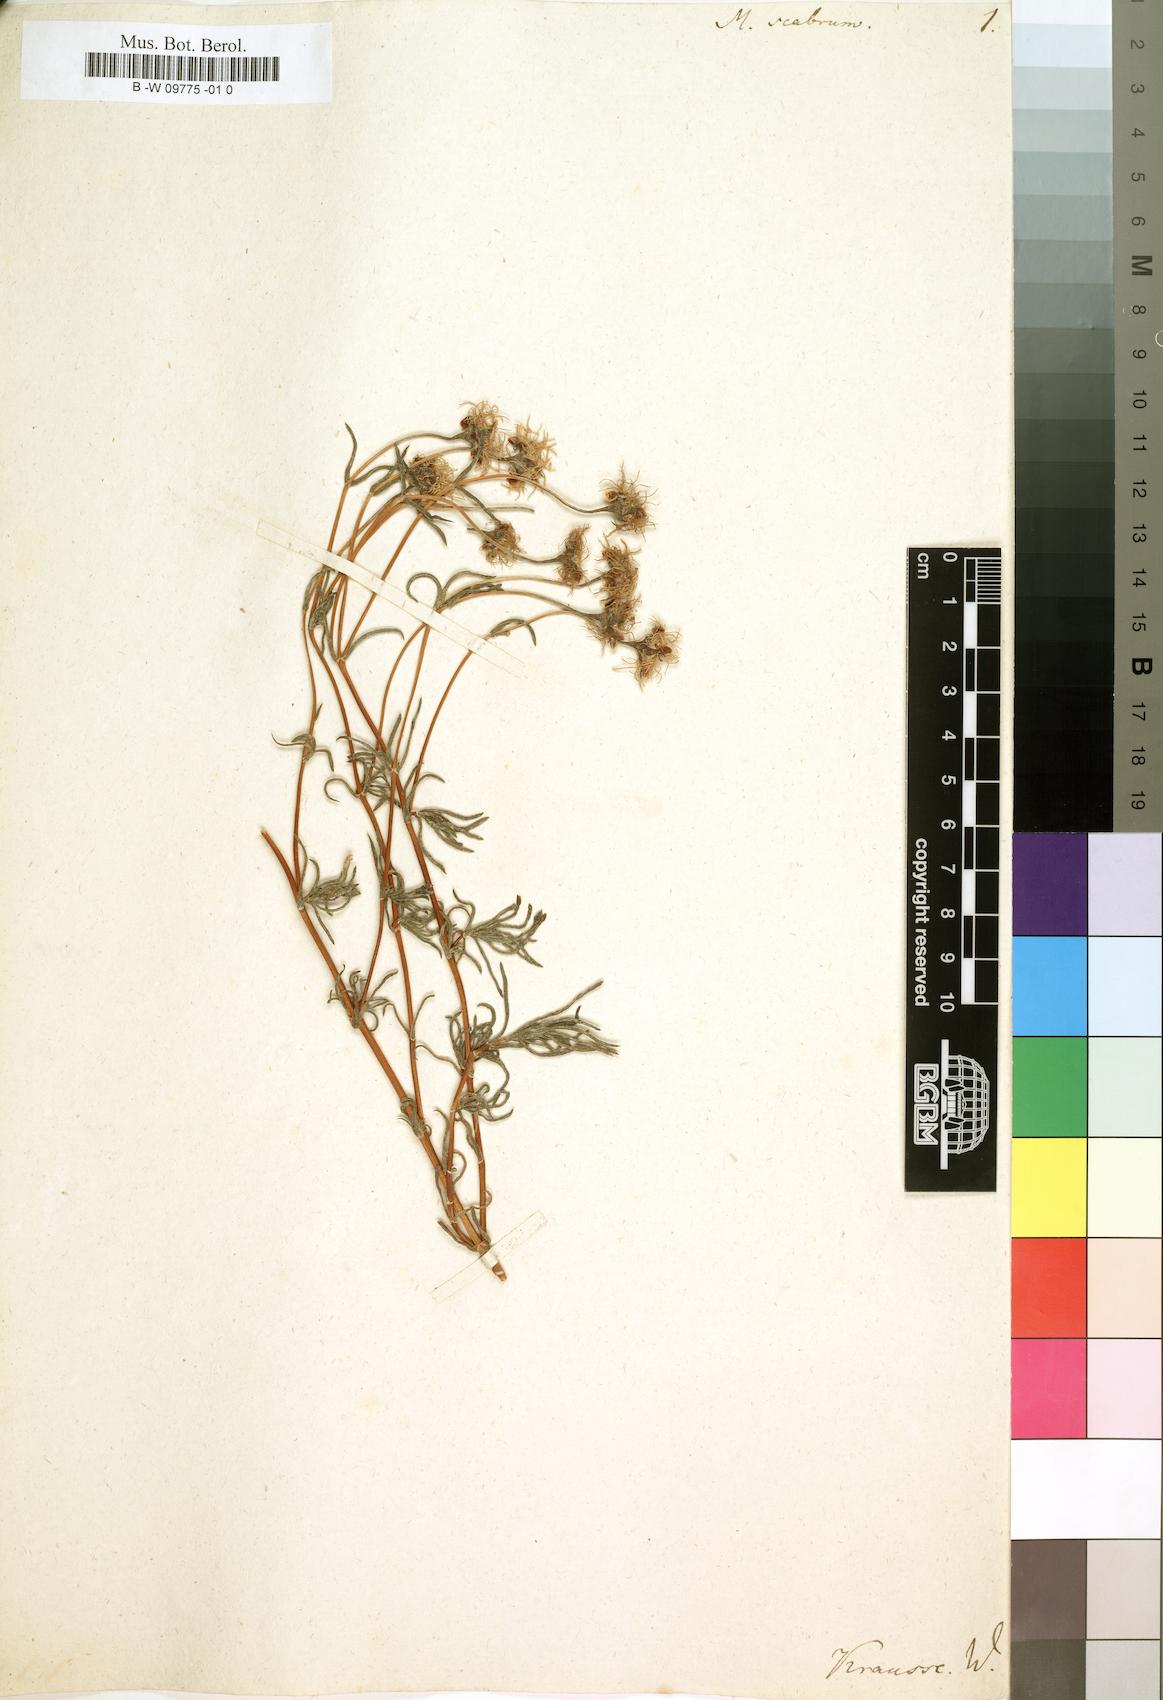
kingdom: Plantae
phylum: Tracheophyta
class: Magnoliopsida
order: Caryophyllales
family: Aizoaceae
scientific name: Aizoaceae
